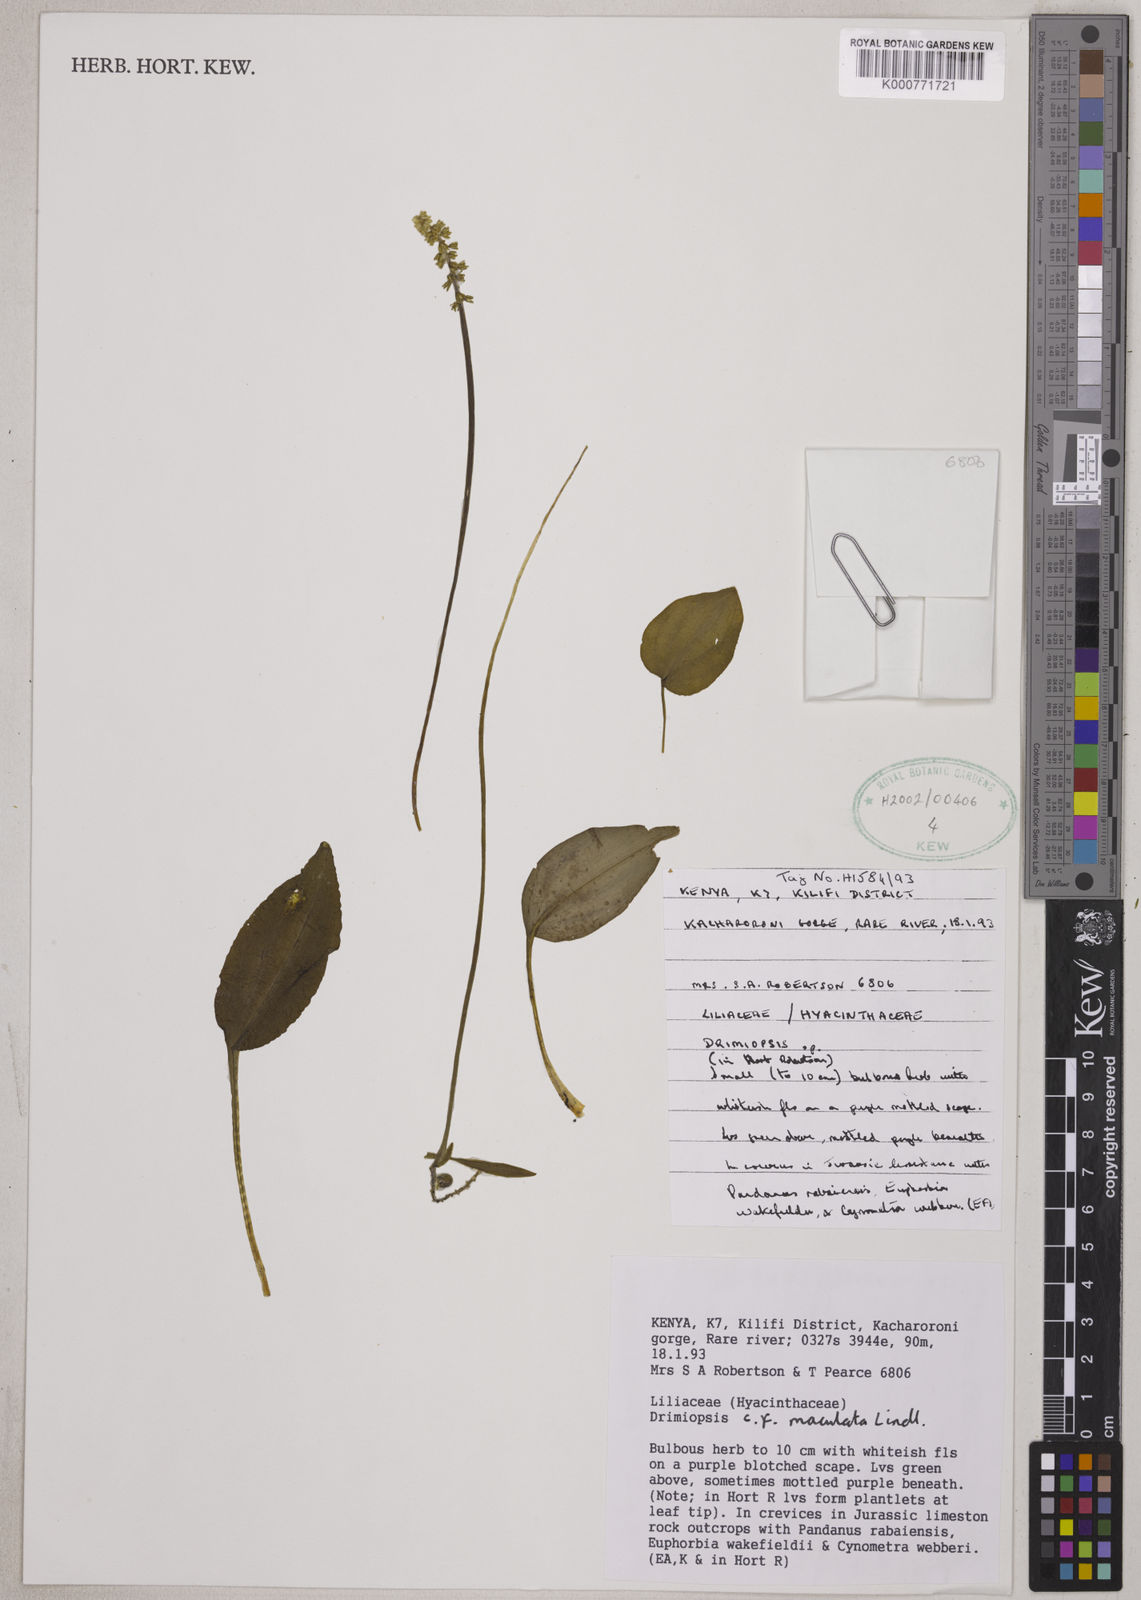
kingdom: Plantae
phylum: Tracheophyta
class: Liliopsida
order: Asparagales
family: Asparagaceae
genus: Drimiopsis
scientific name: Drimiopsis maculata
